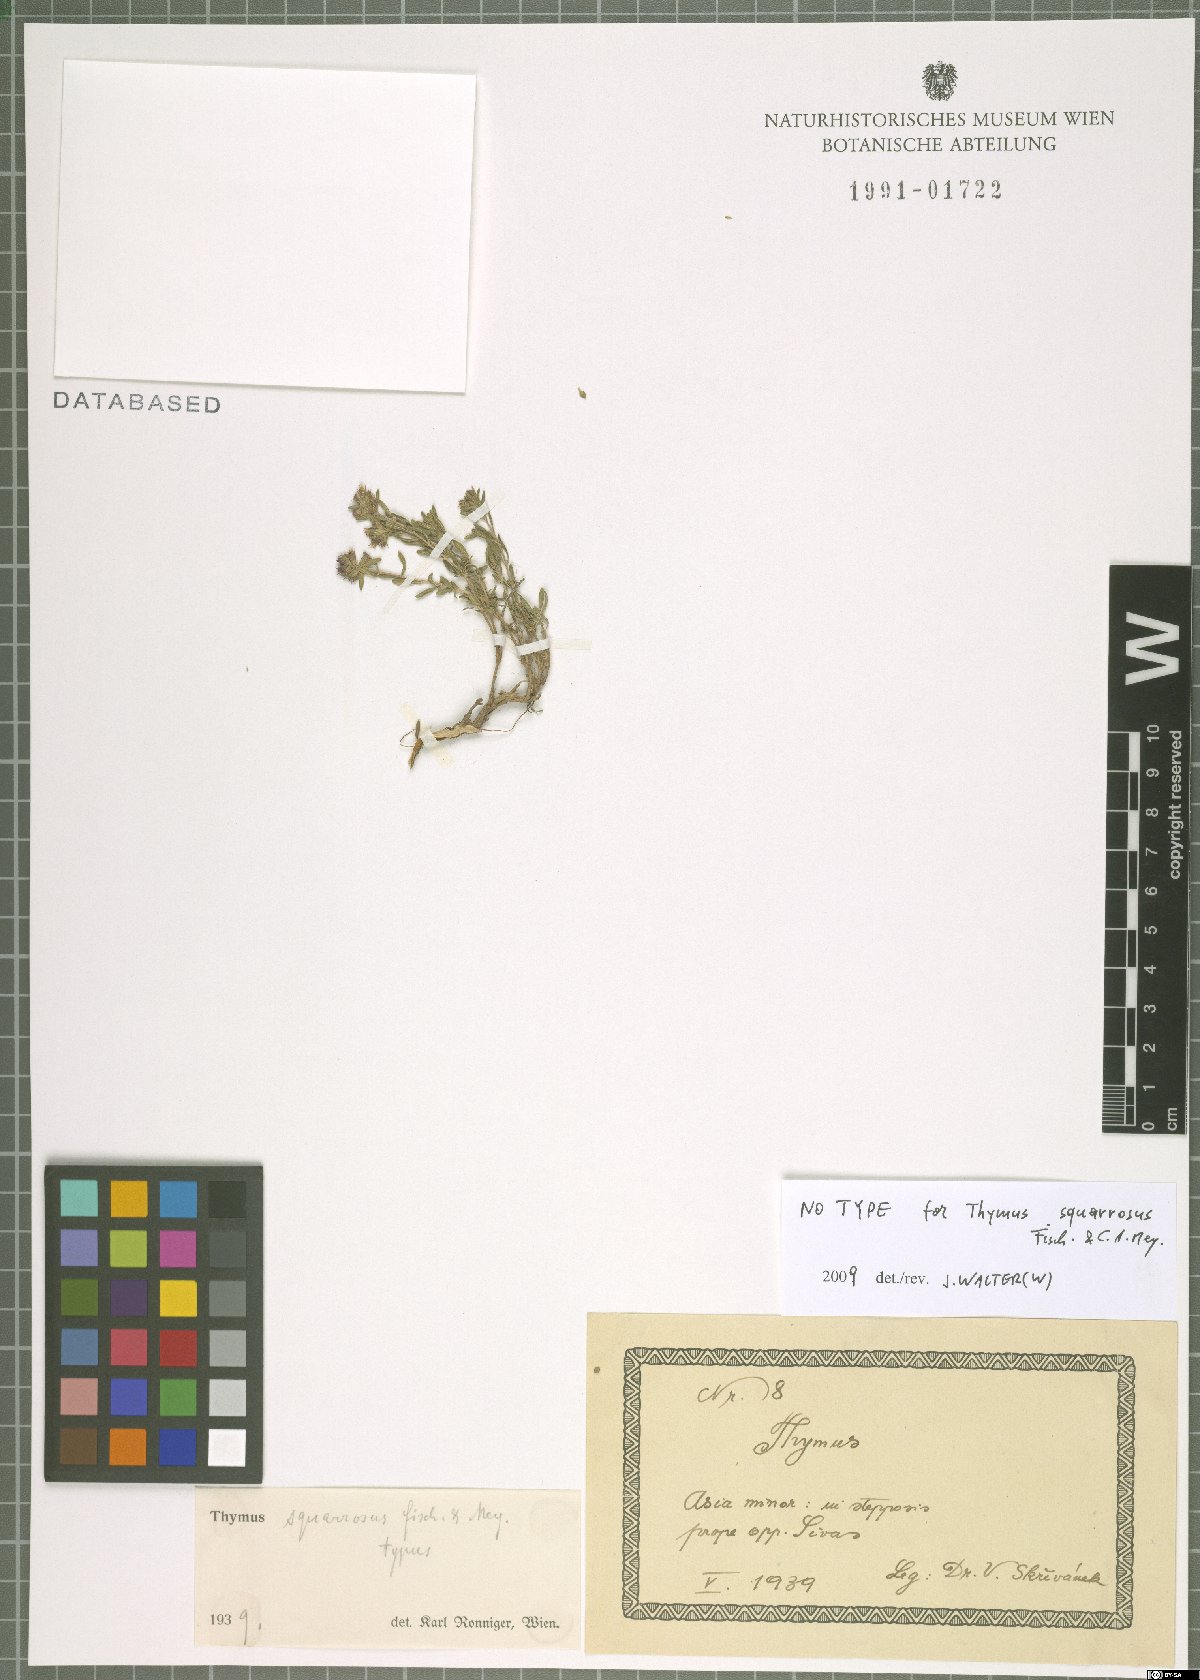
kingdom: Plantae
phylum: Tracheophyta
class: Magnoliopsida
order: Lamiales
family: Lamiaceae
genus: Thymus
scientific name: Thymus sipyleus
